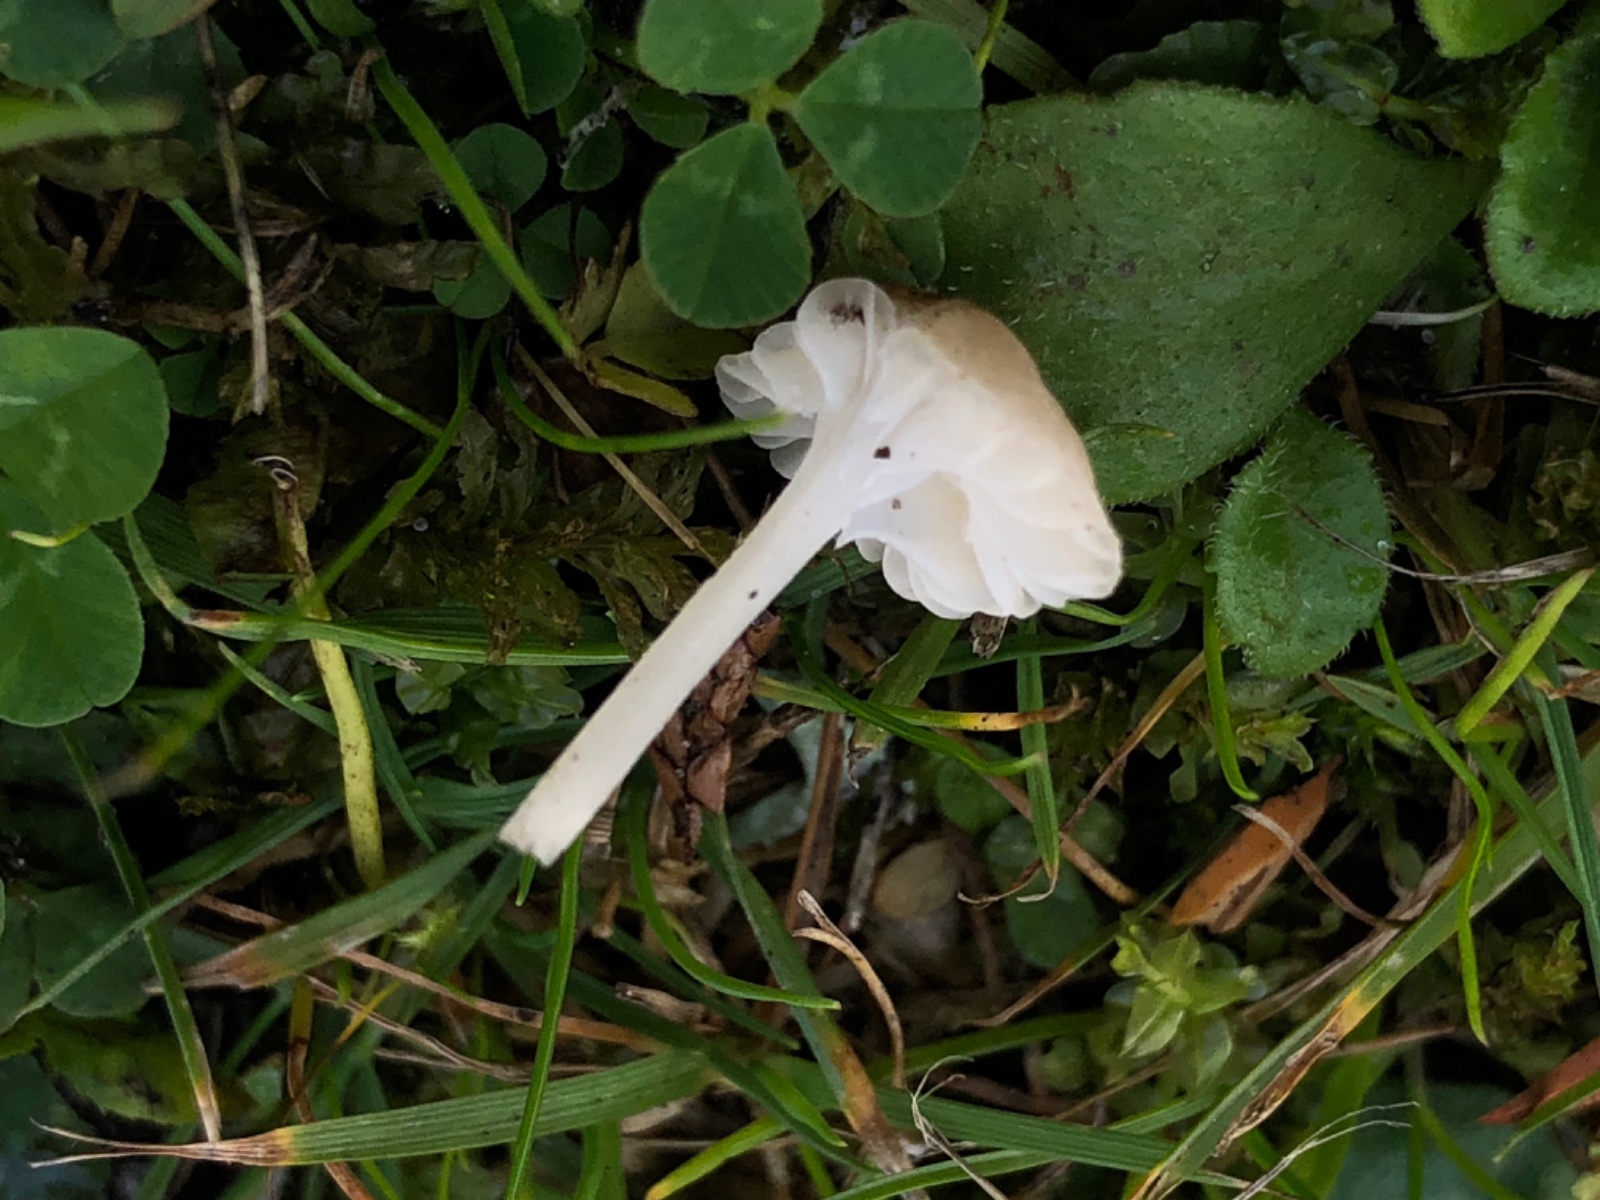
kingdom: Fungi
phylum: Basidiomycota
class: Agaricomycetes
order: Agaricales
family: Mycenaceae
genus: Hemimycena
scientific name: Hemimycena mairei
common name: voks-huesvamp
